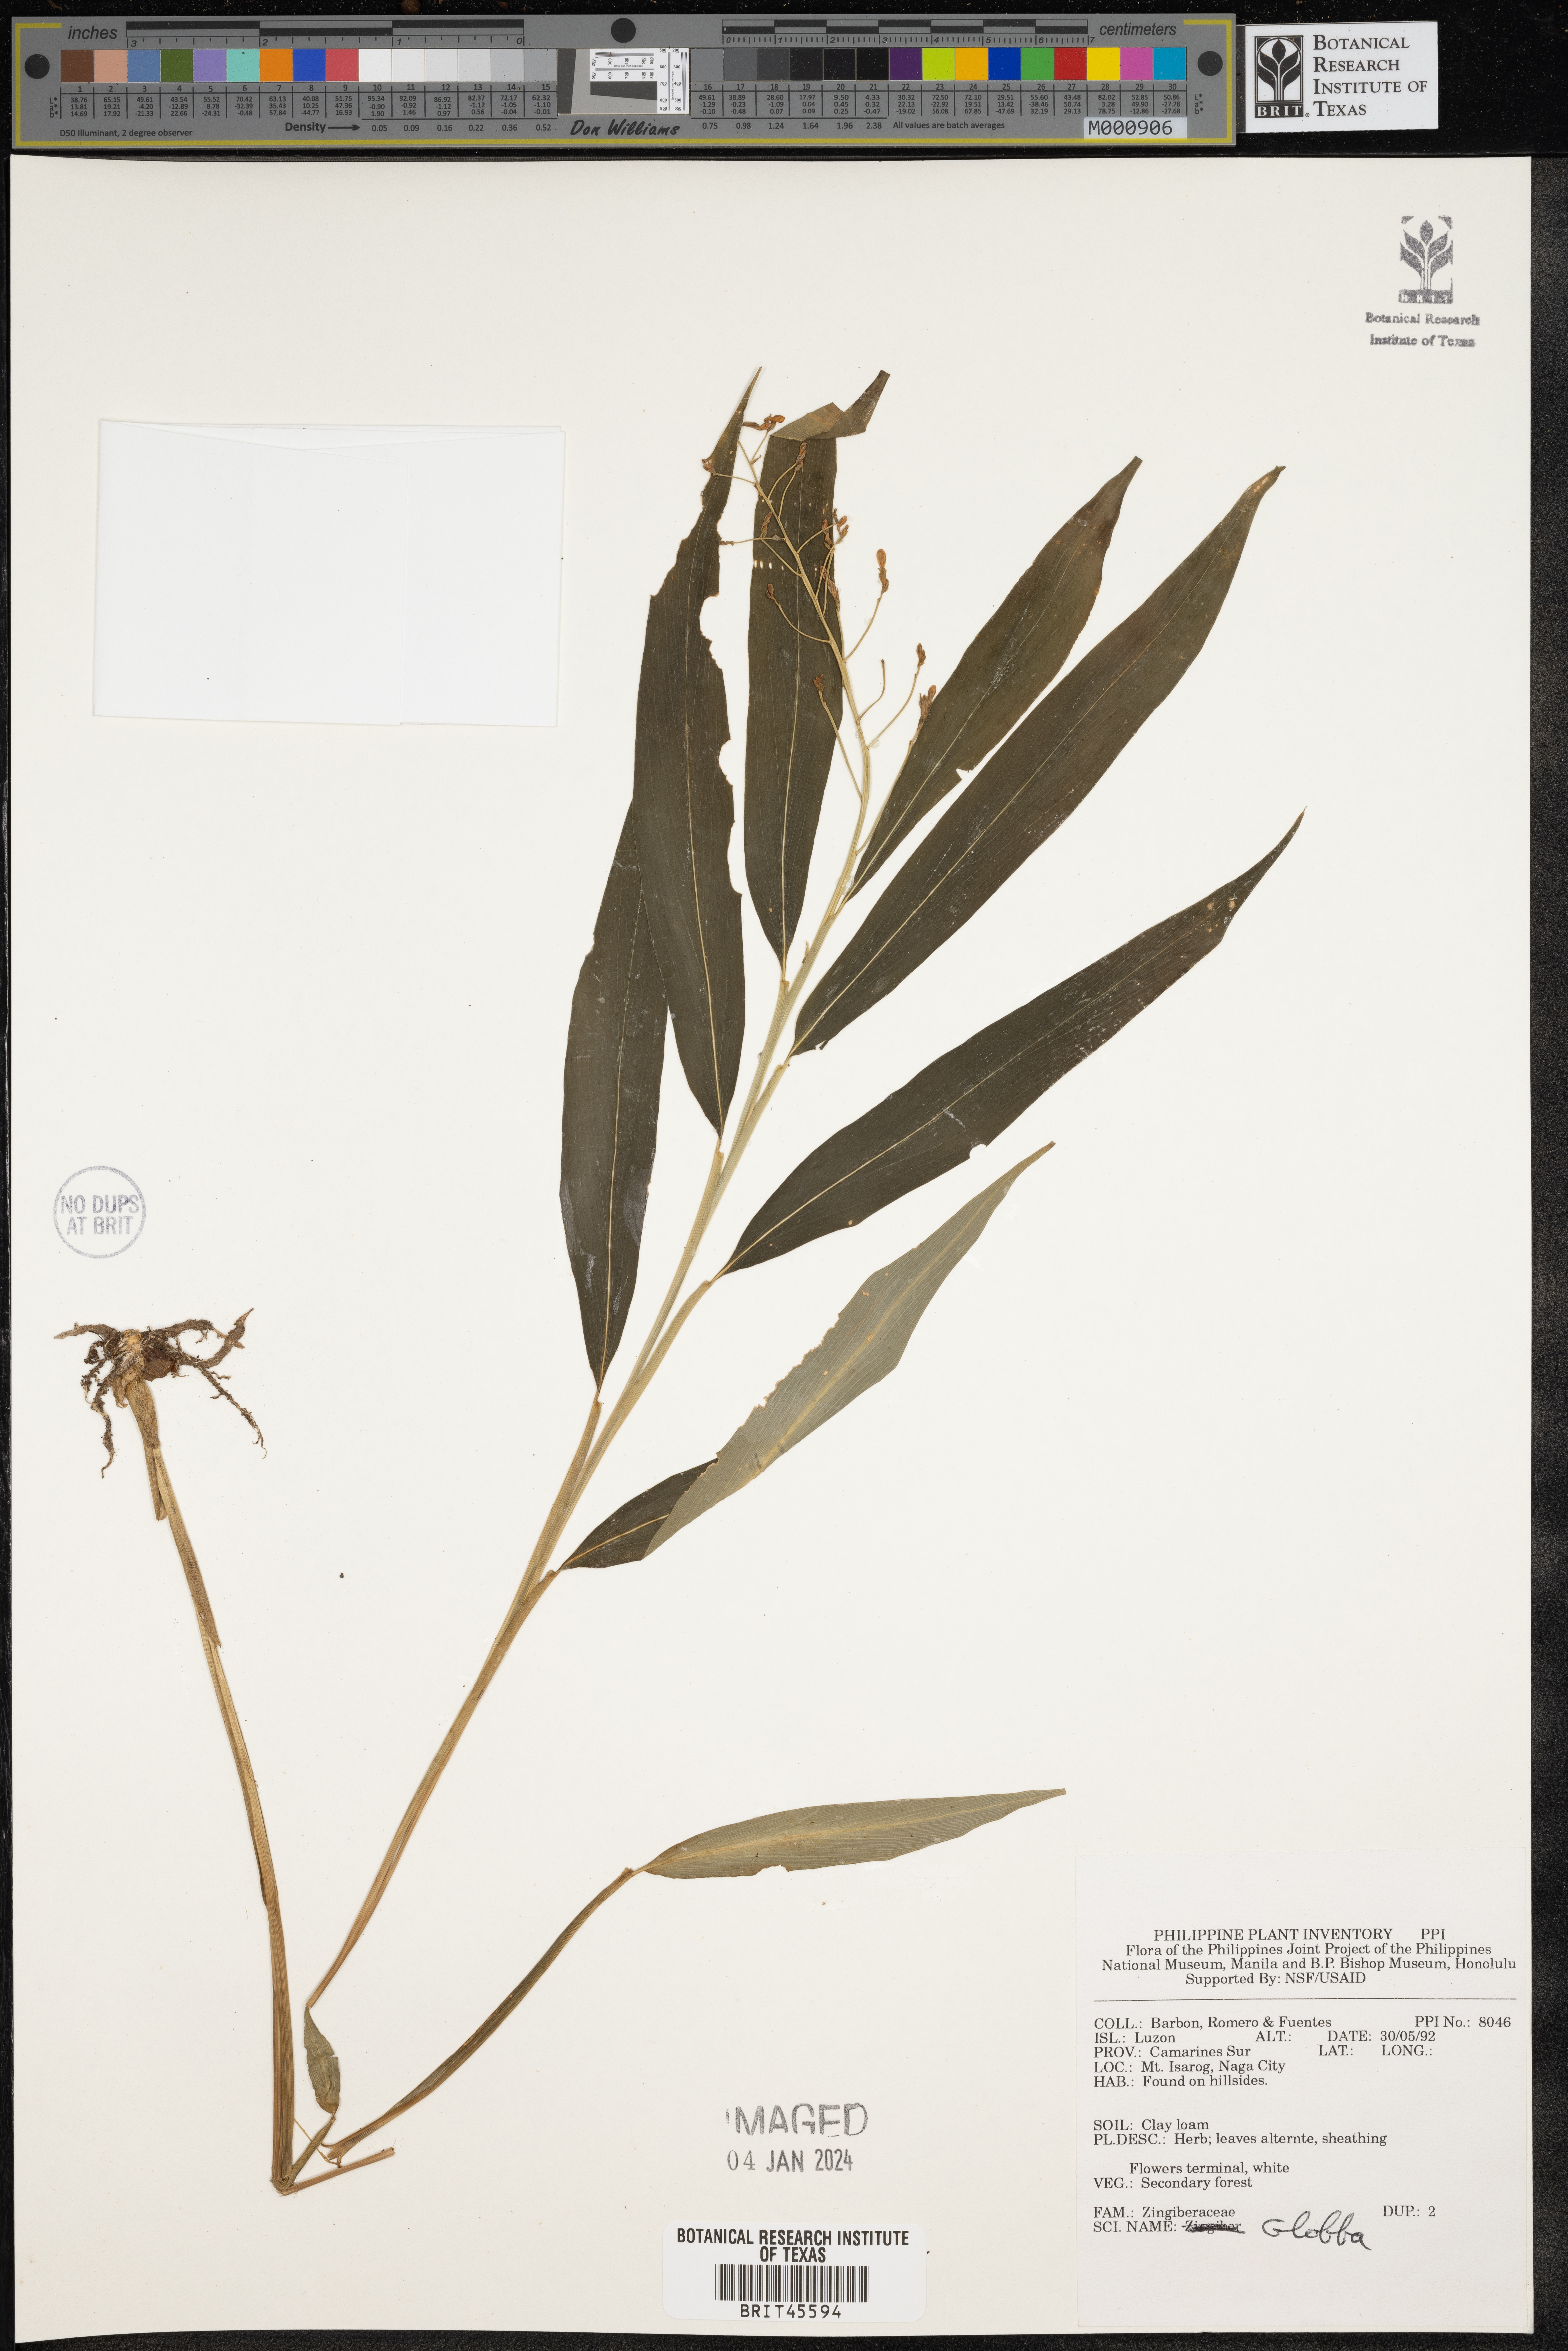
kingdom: Plantae
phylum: Tracheophyta
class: Liliopsida
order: Zingiberales
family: Zingiberaceae
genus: Globba
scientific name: Globba
